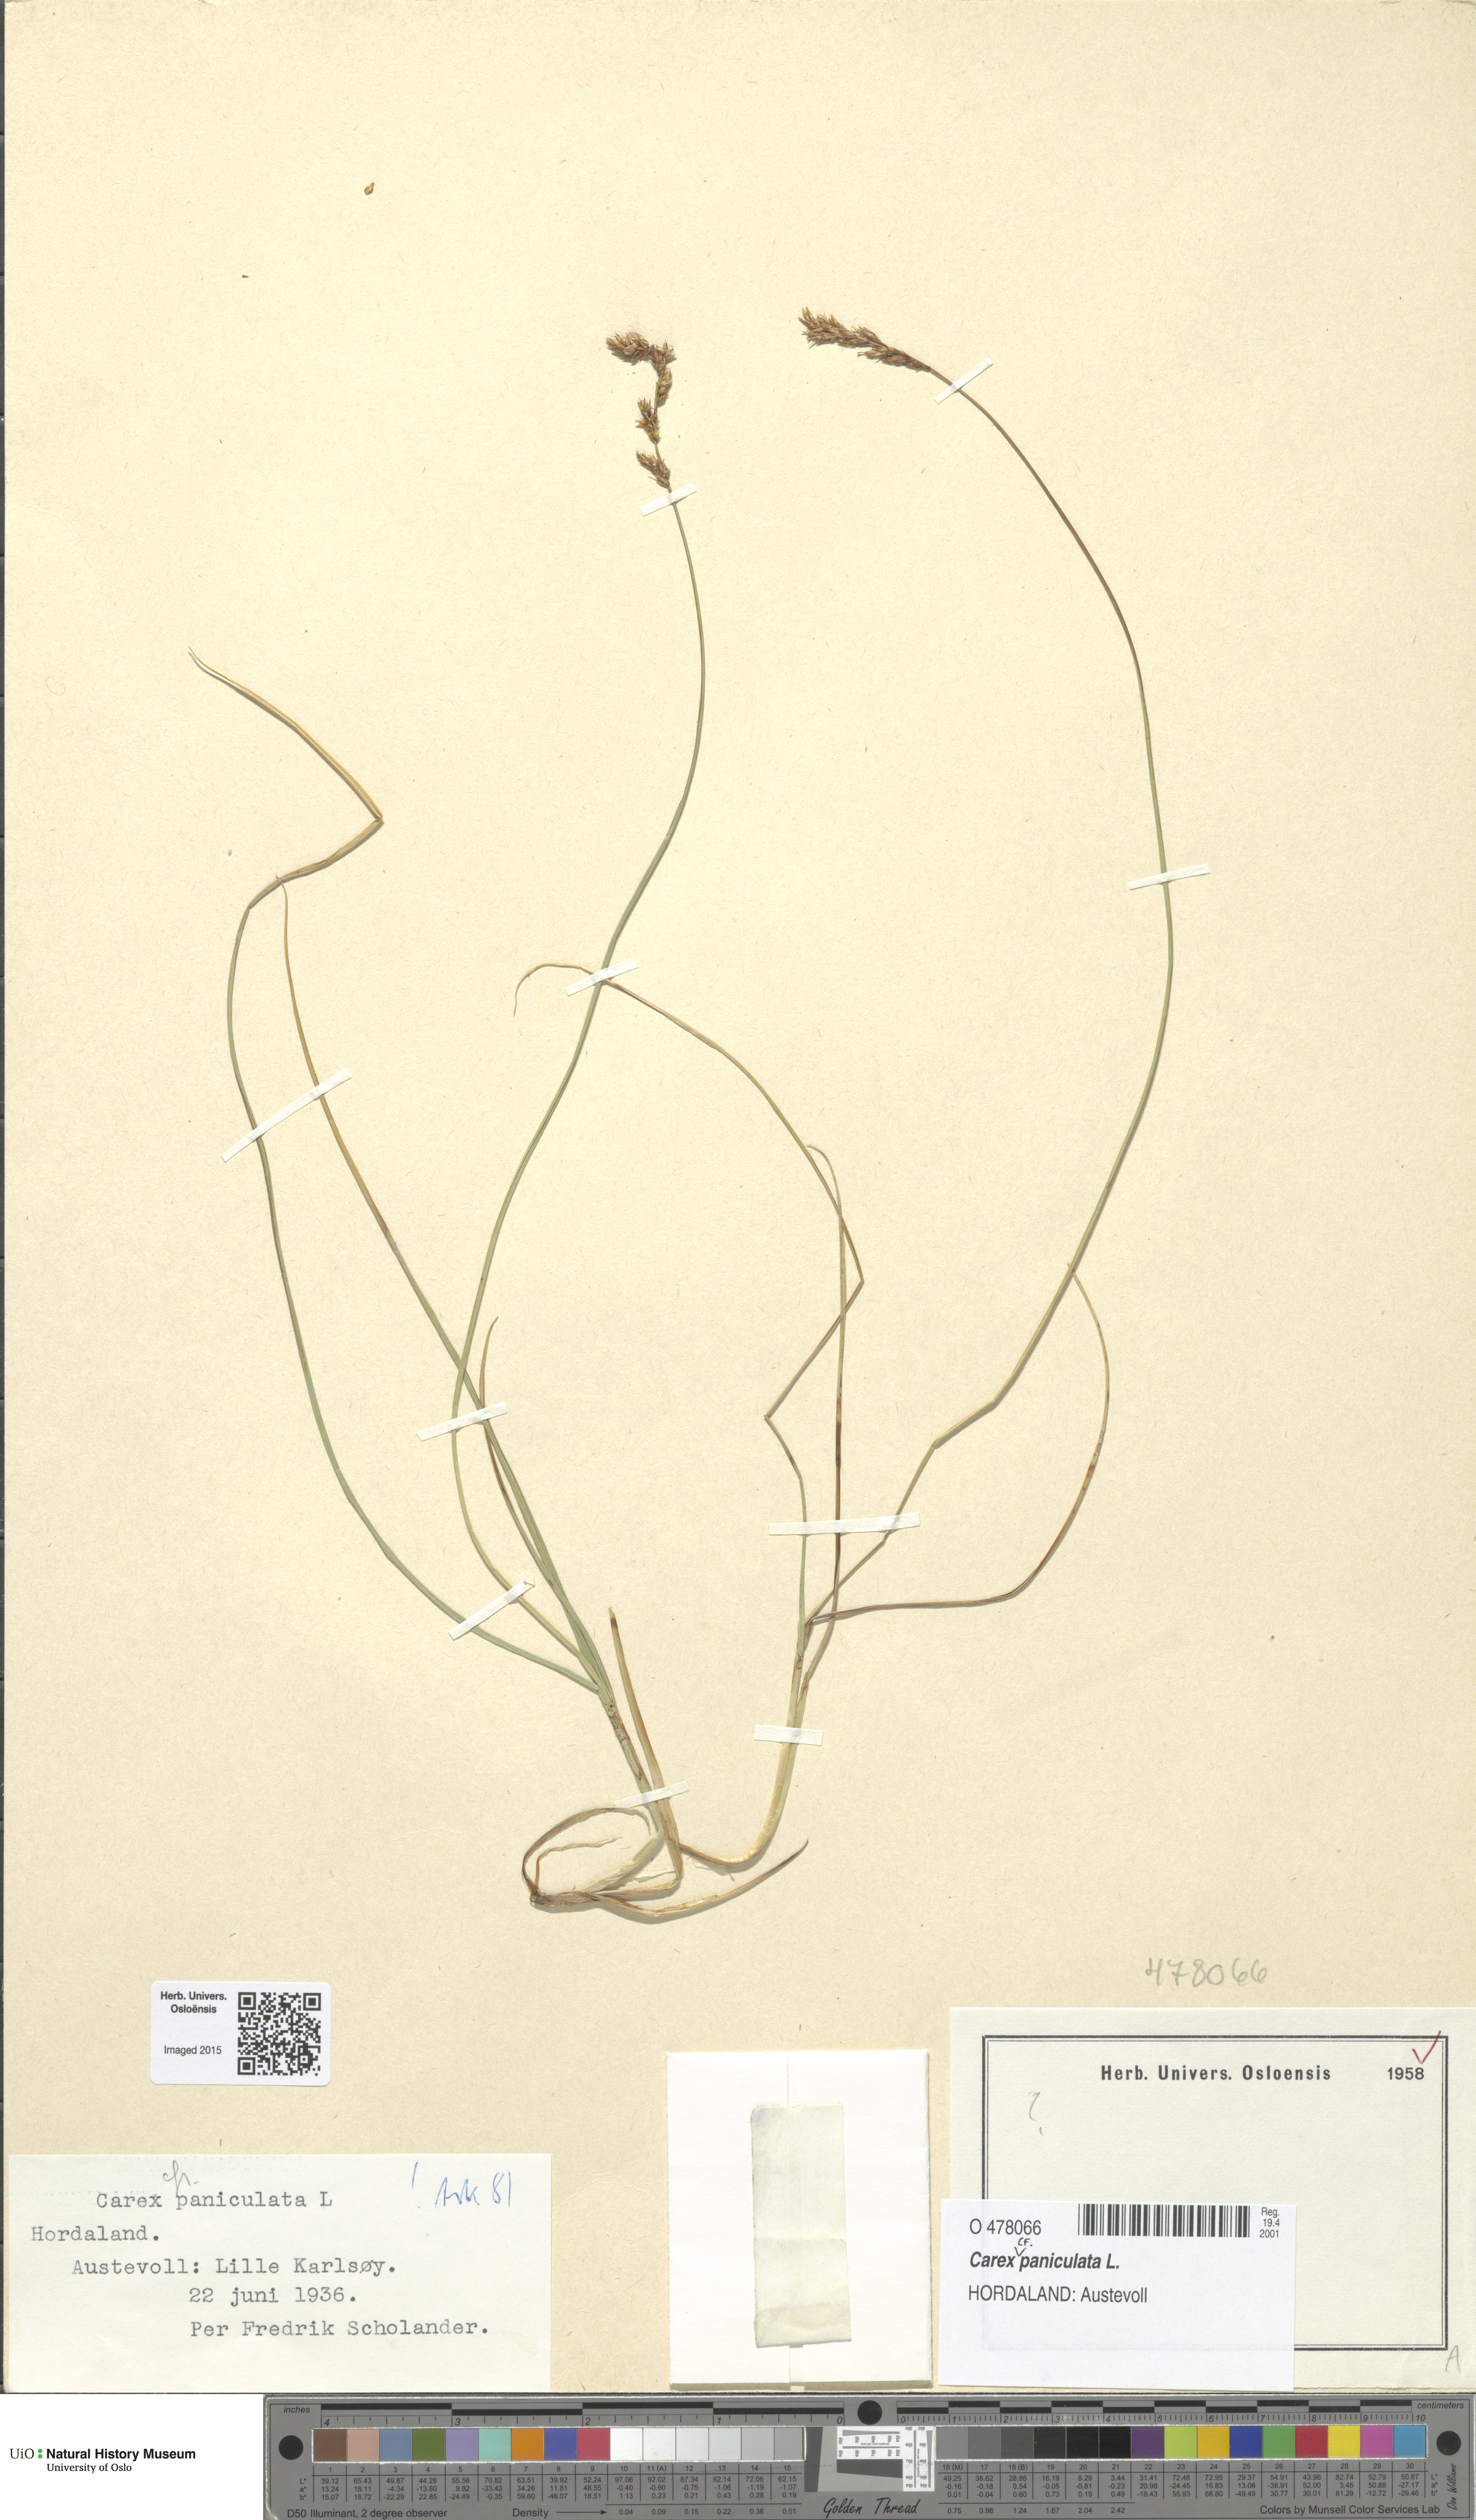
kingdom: Plantae
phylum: Tracheophyta
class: Liliopsida
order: Poales
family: Cyperaceae
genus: Carex
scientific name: Carex paniculata
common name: Greater tussock-sedge
